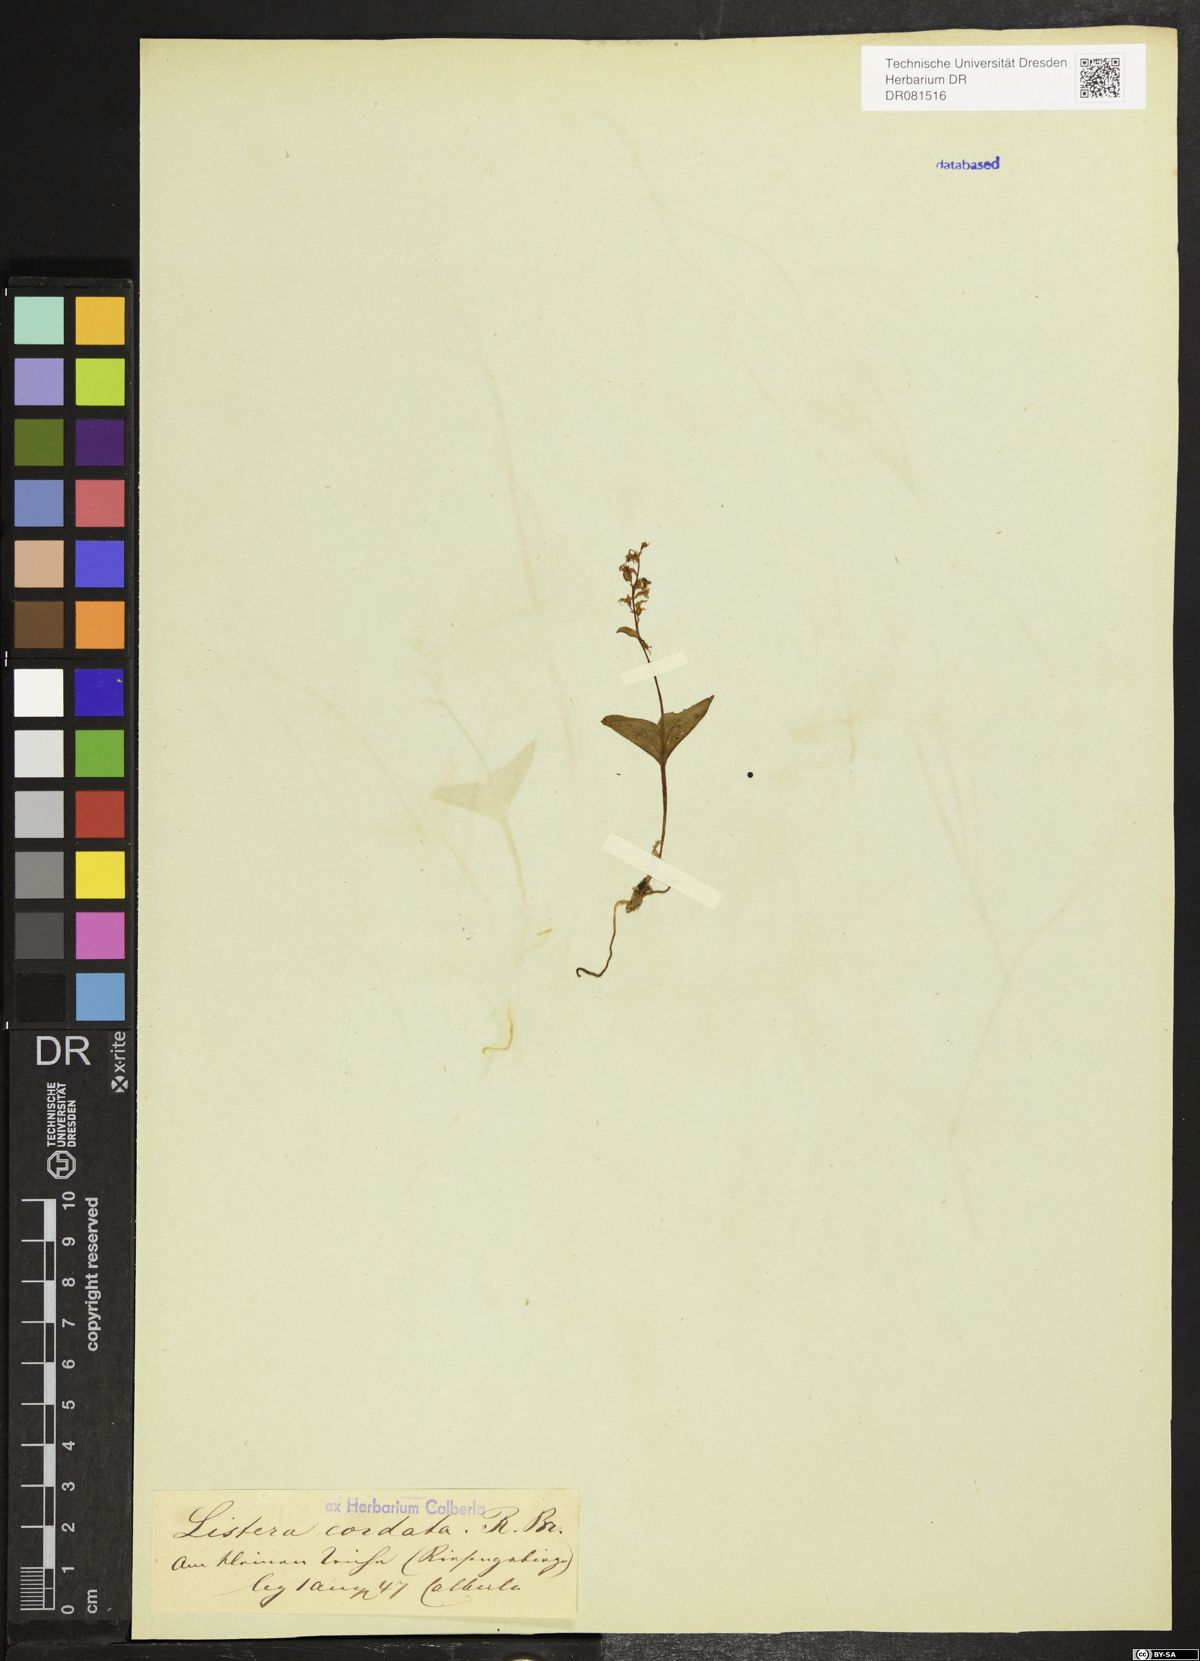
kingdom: Plantae
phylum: Tracheophyta
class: Liliopsida
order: Asparagales
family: Orchidaceae
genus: Neottia
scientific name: Neottia cordata
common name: Lesser twayblade
